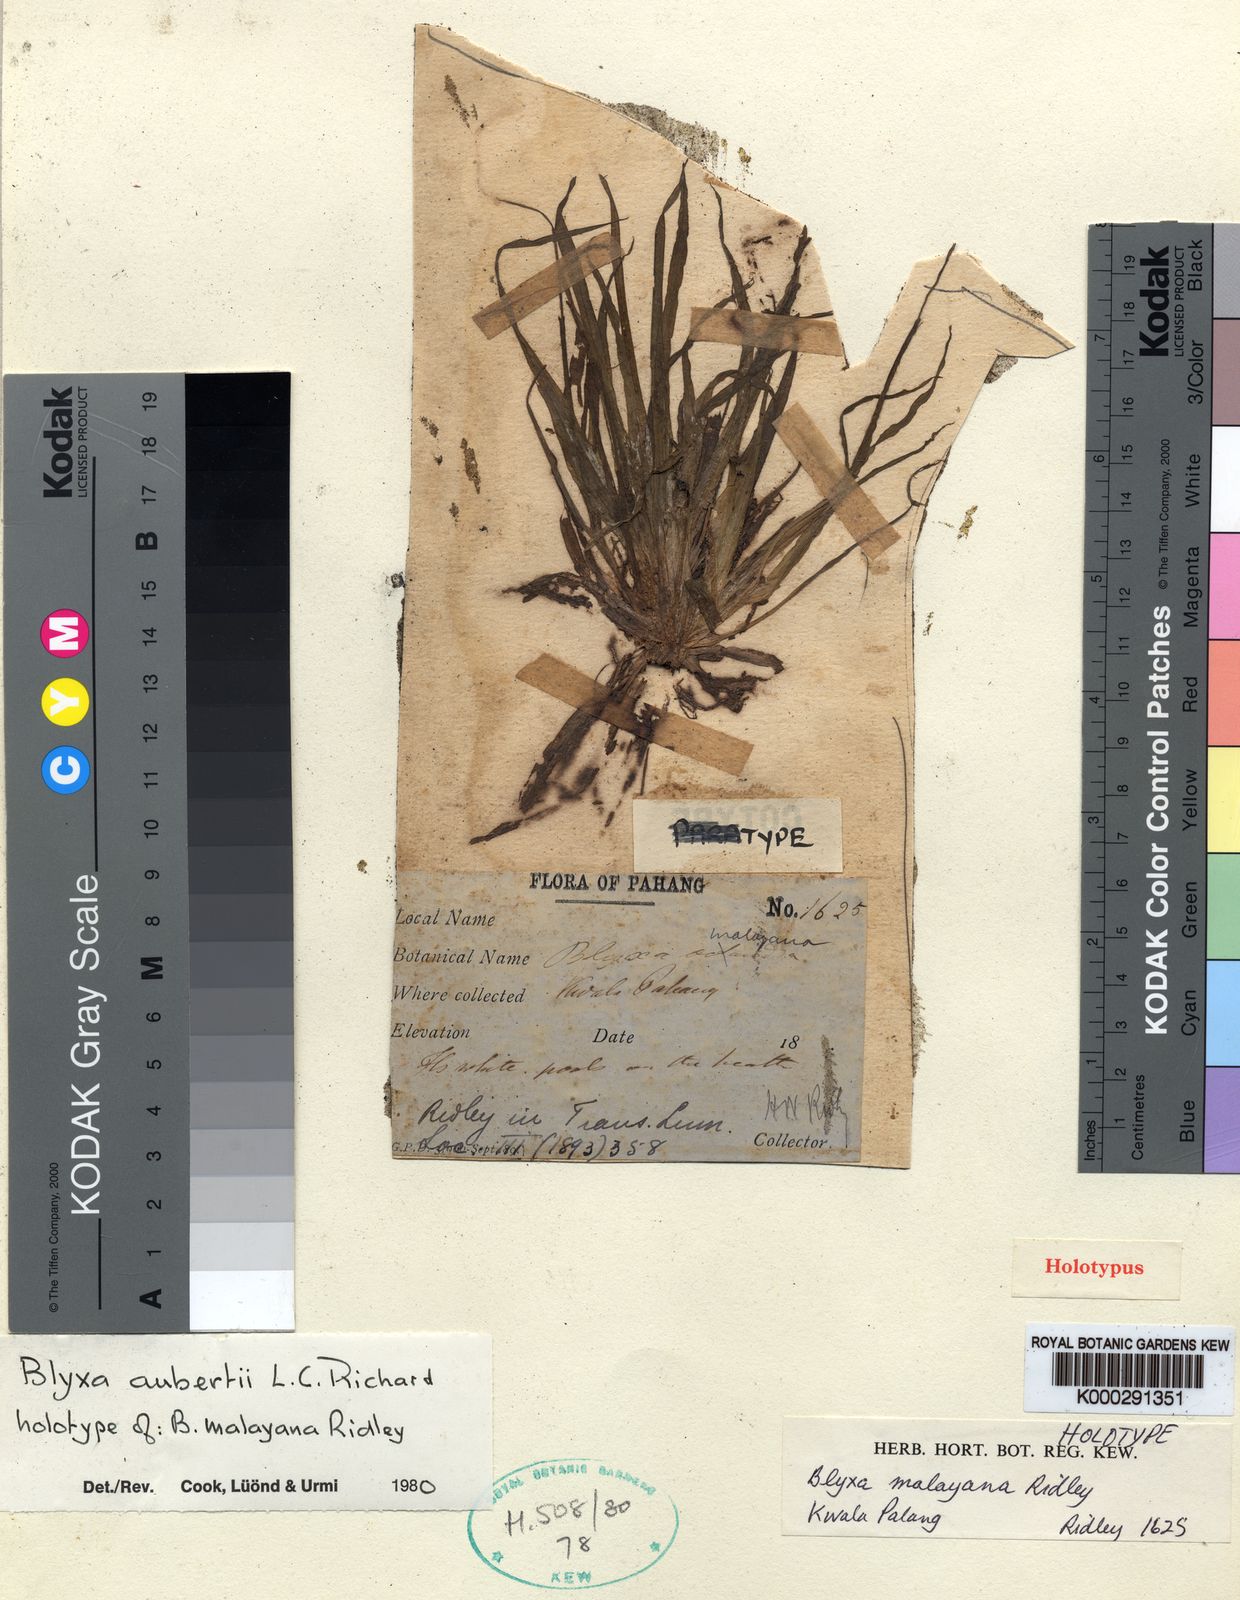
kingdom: Plantae
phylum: Tracheophyta
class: Liliopsida
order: Alismatales
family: Hydrocharitaceae
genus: Blyxa
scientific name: Blyxa aubertii
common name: Roundfruit blyxa
